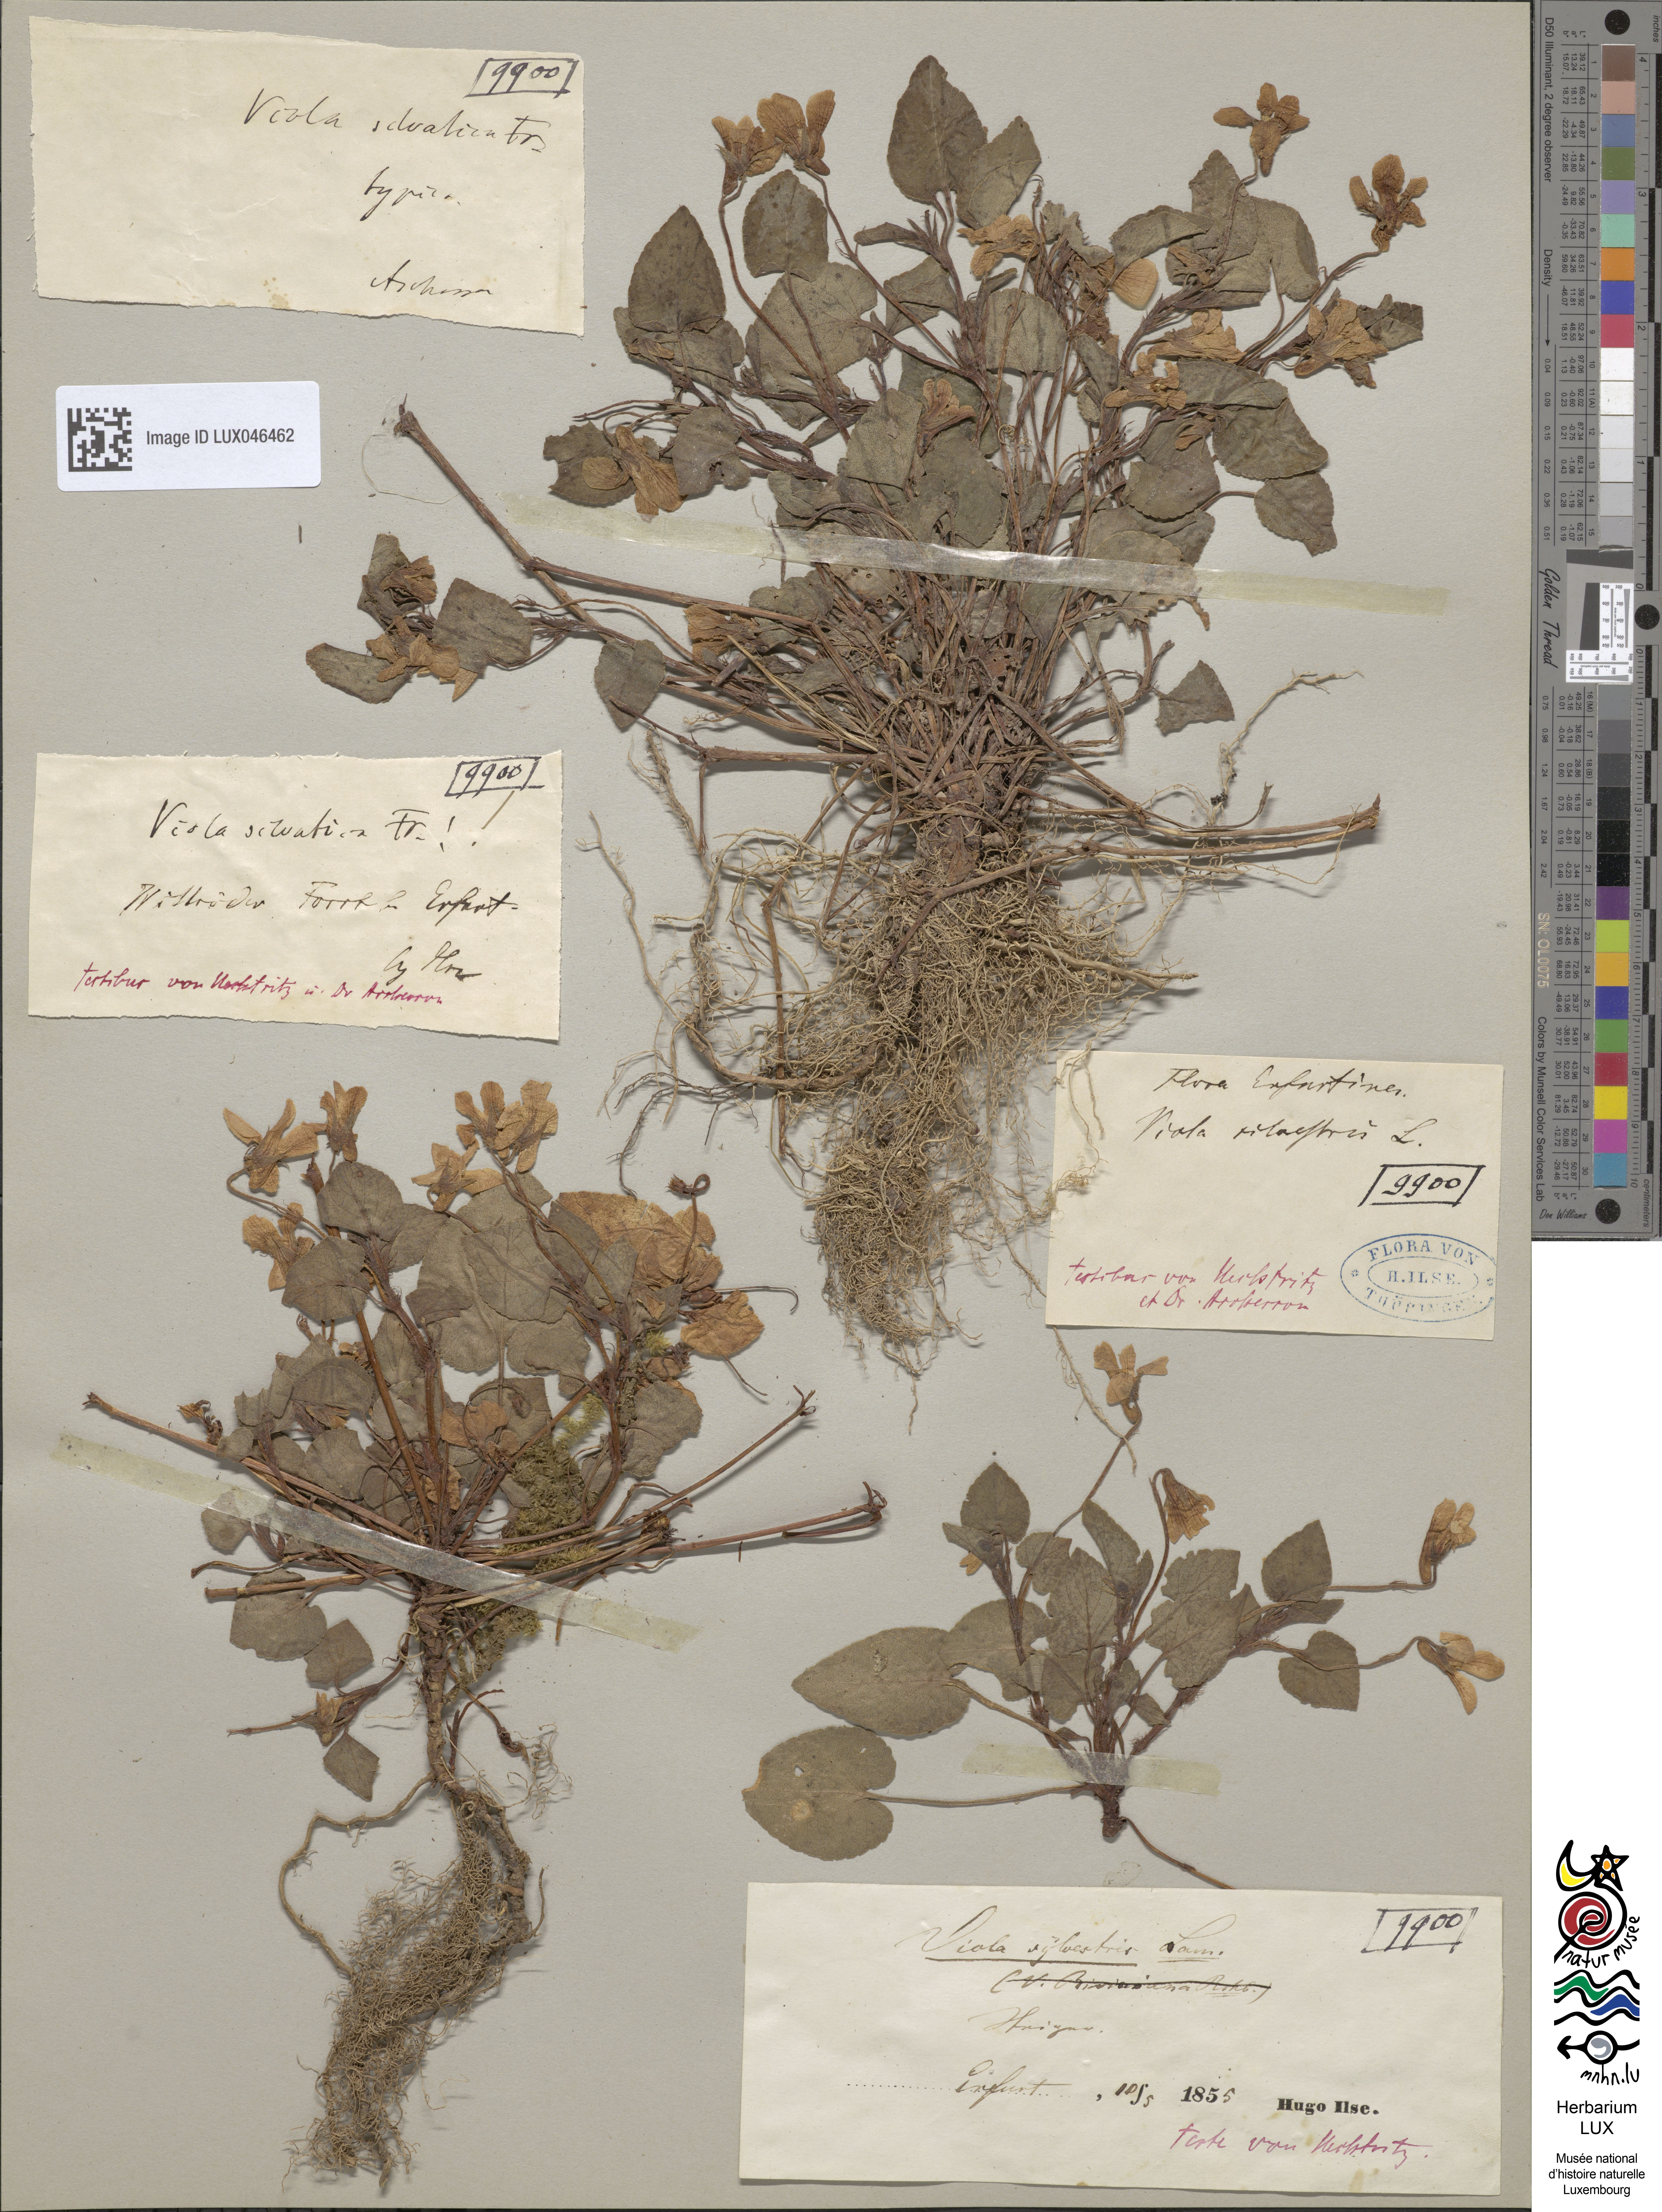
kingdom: Plantae
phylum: Tracheophyta
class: Magnoliopsida
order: Malpighiales
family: Violaceae
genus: Viola
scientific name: Viola reichenbachiana
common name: Early dog-violet
